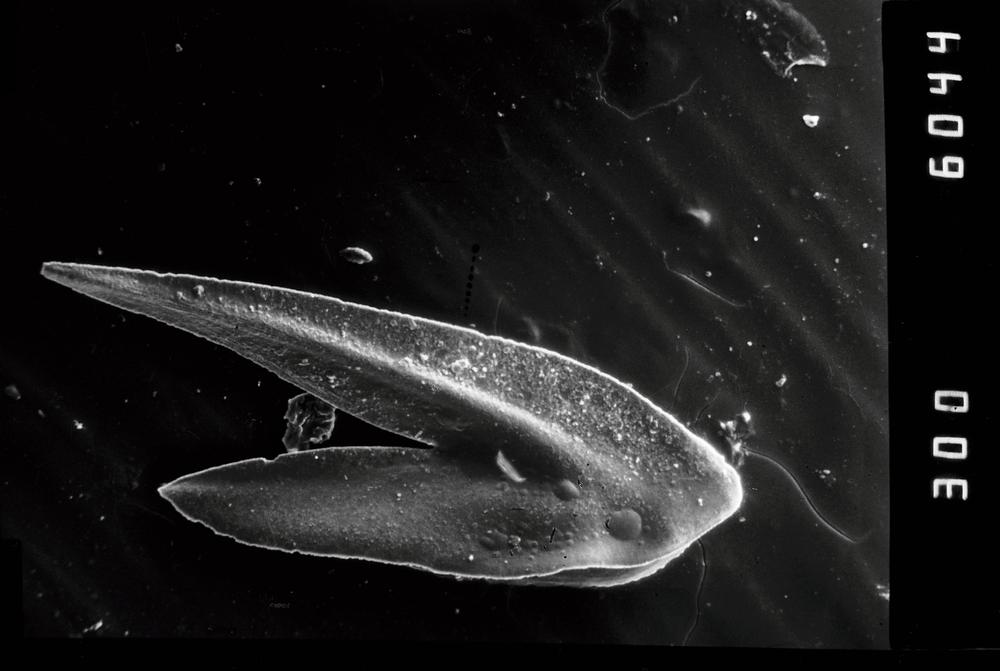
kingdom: Animalia
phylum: Chordata
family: Drepanoistodontidae
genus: Drepanoistodus
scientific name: Drepanoistodus Oistodus forceps
